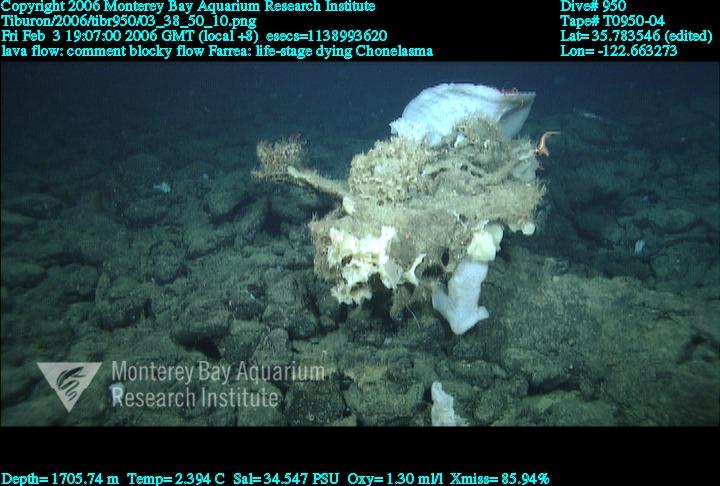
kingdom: Animalia
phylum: Porifera
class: Hexactinellida
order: Sceptrulophora
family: Euretidae
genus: Chonelasma
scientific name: Chonelasma
